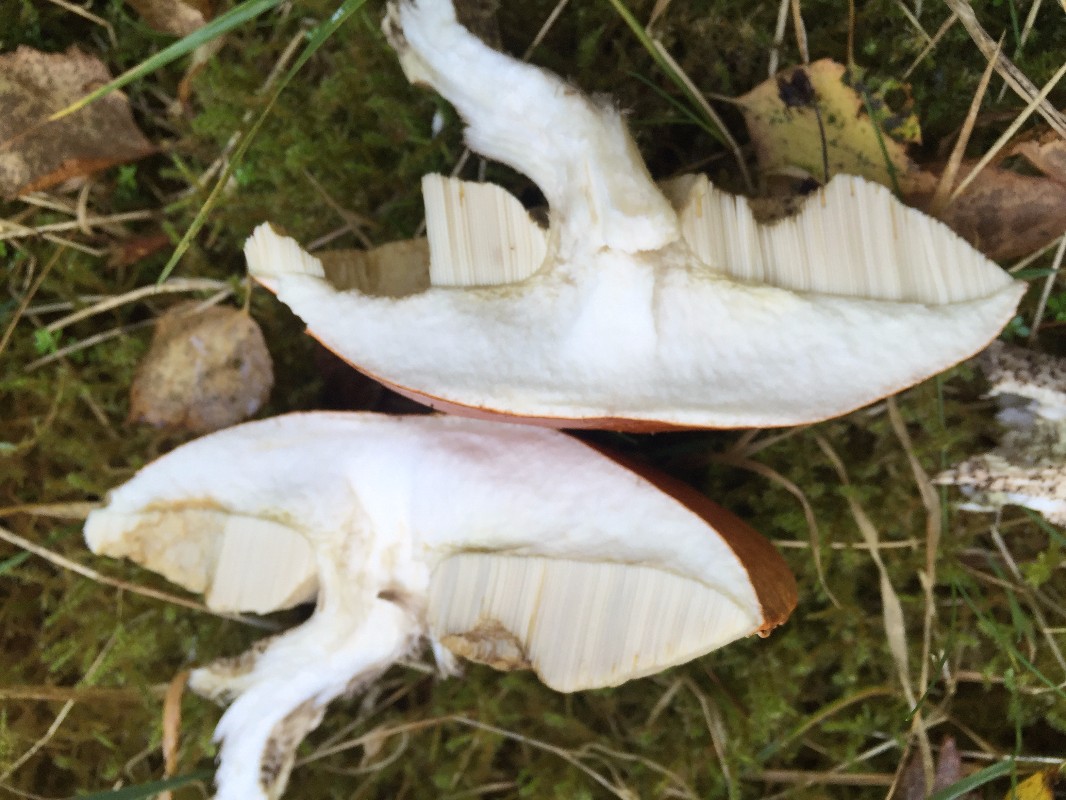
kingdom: Fungi
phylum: Basidiomycota
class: Agaricomycetes
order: Boletales
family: Boletaceae
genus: Leccinum
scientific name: Leccinum versipelle
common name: orange skælrørhat
